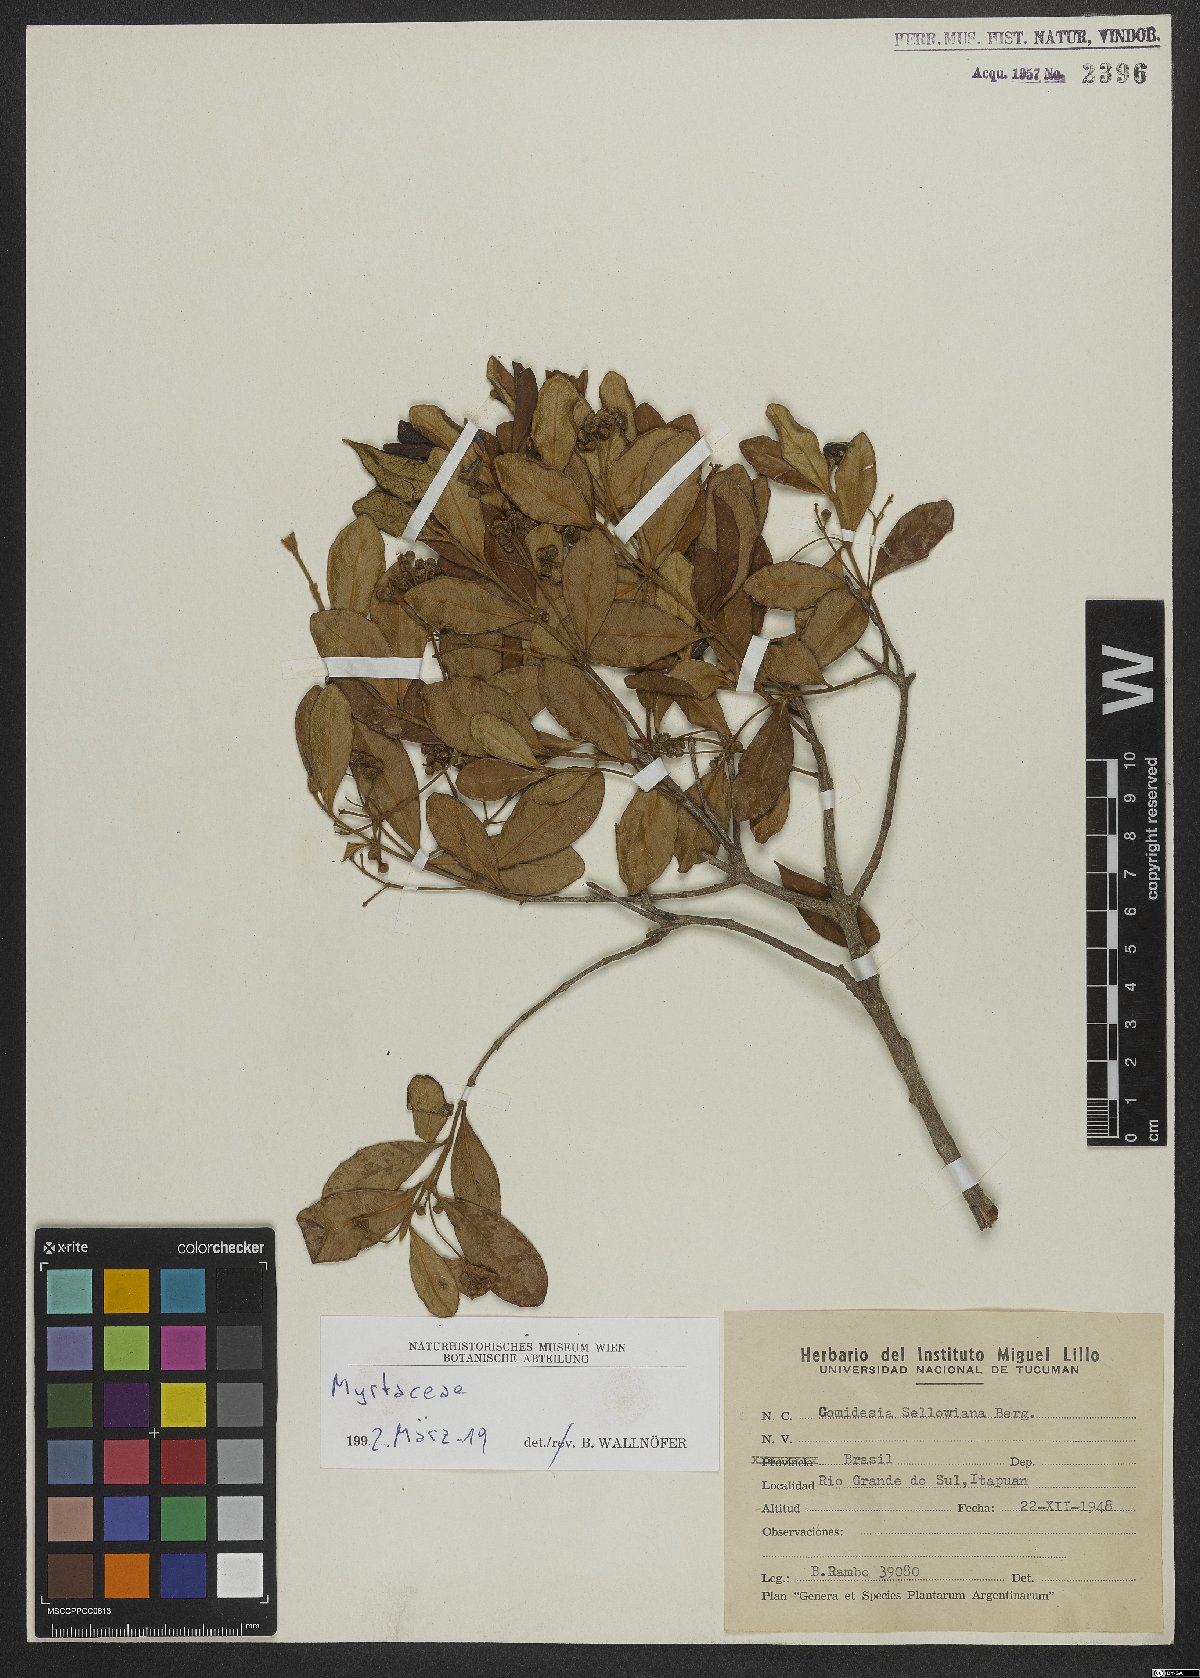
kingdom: Plantae
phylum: Tracheophyta
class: Magnoliopsida
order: Myrtales
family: Melastomataceae
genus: Miconia
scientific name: Miconia
